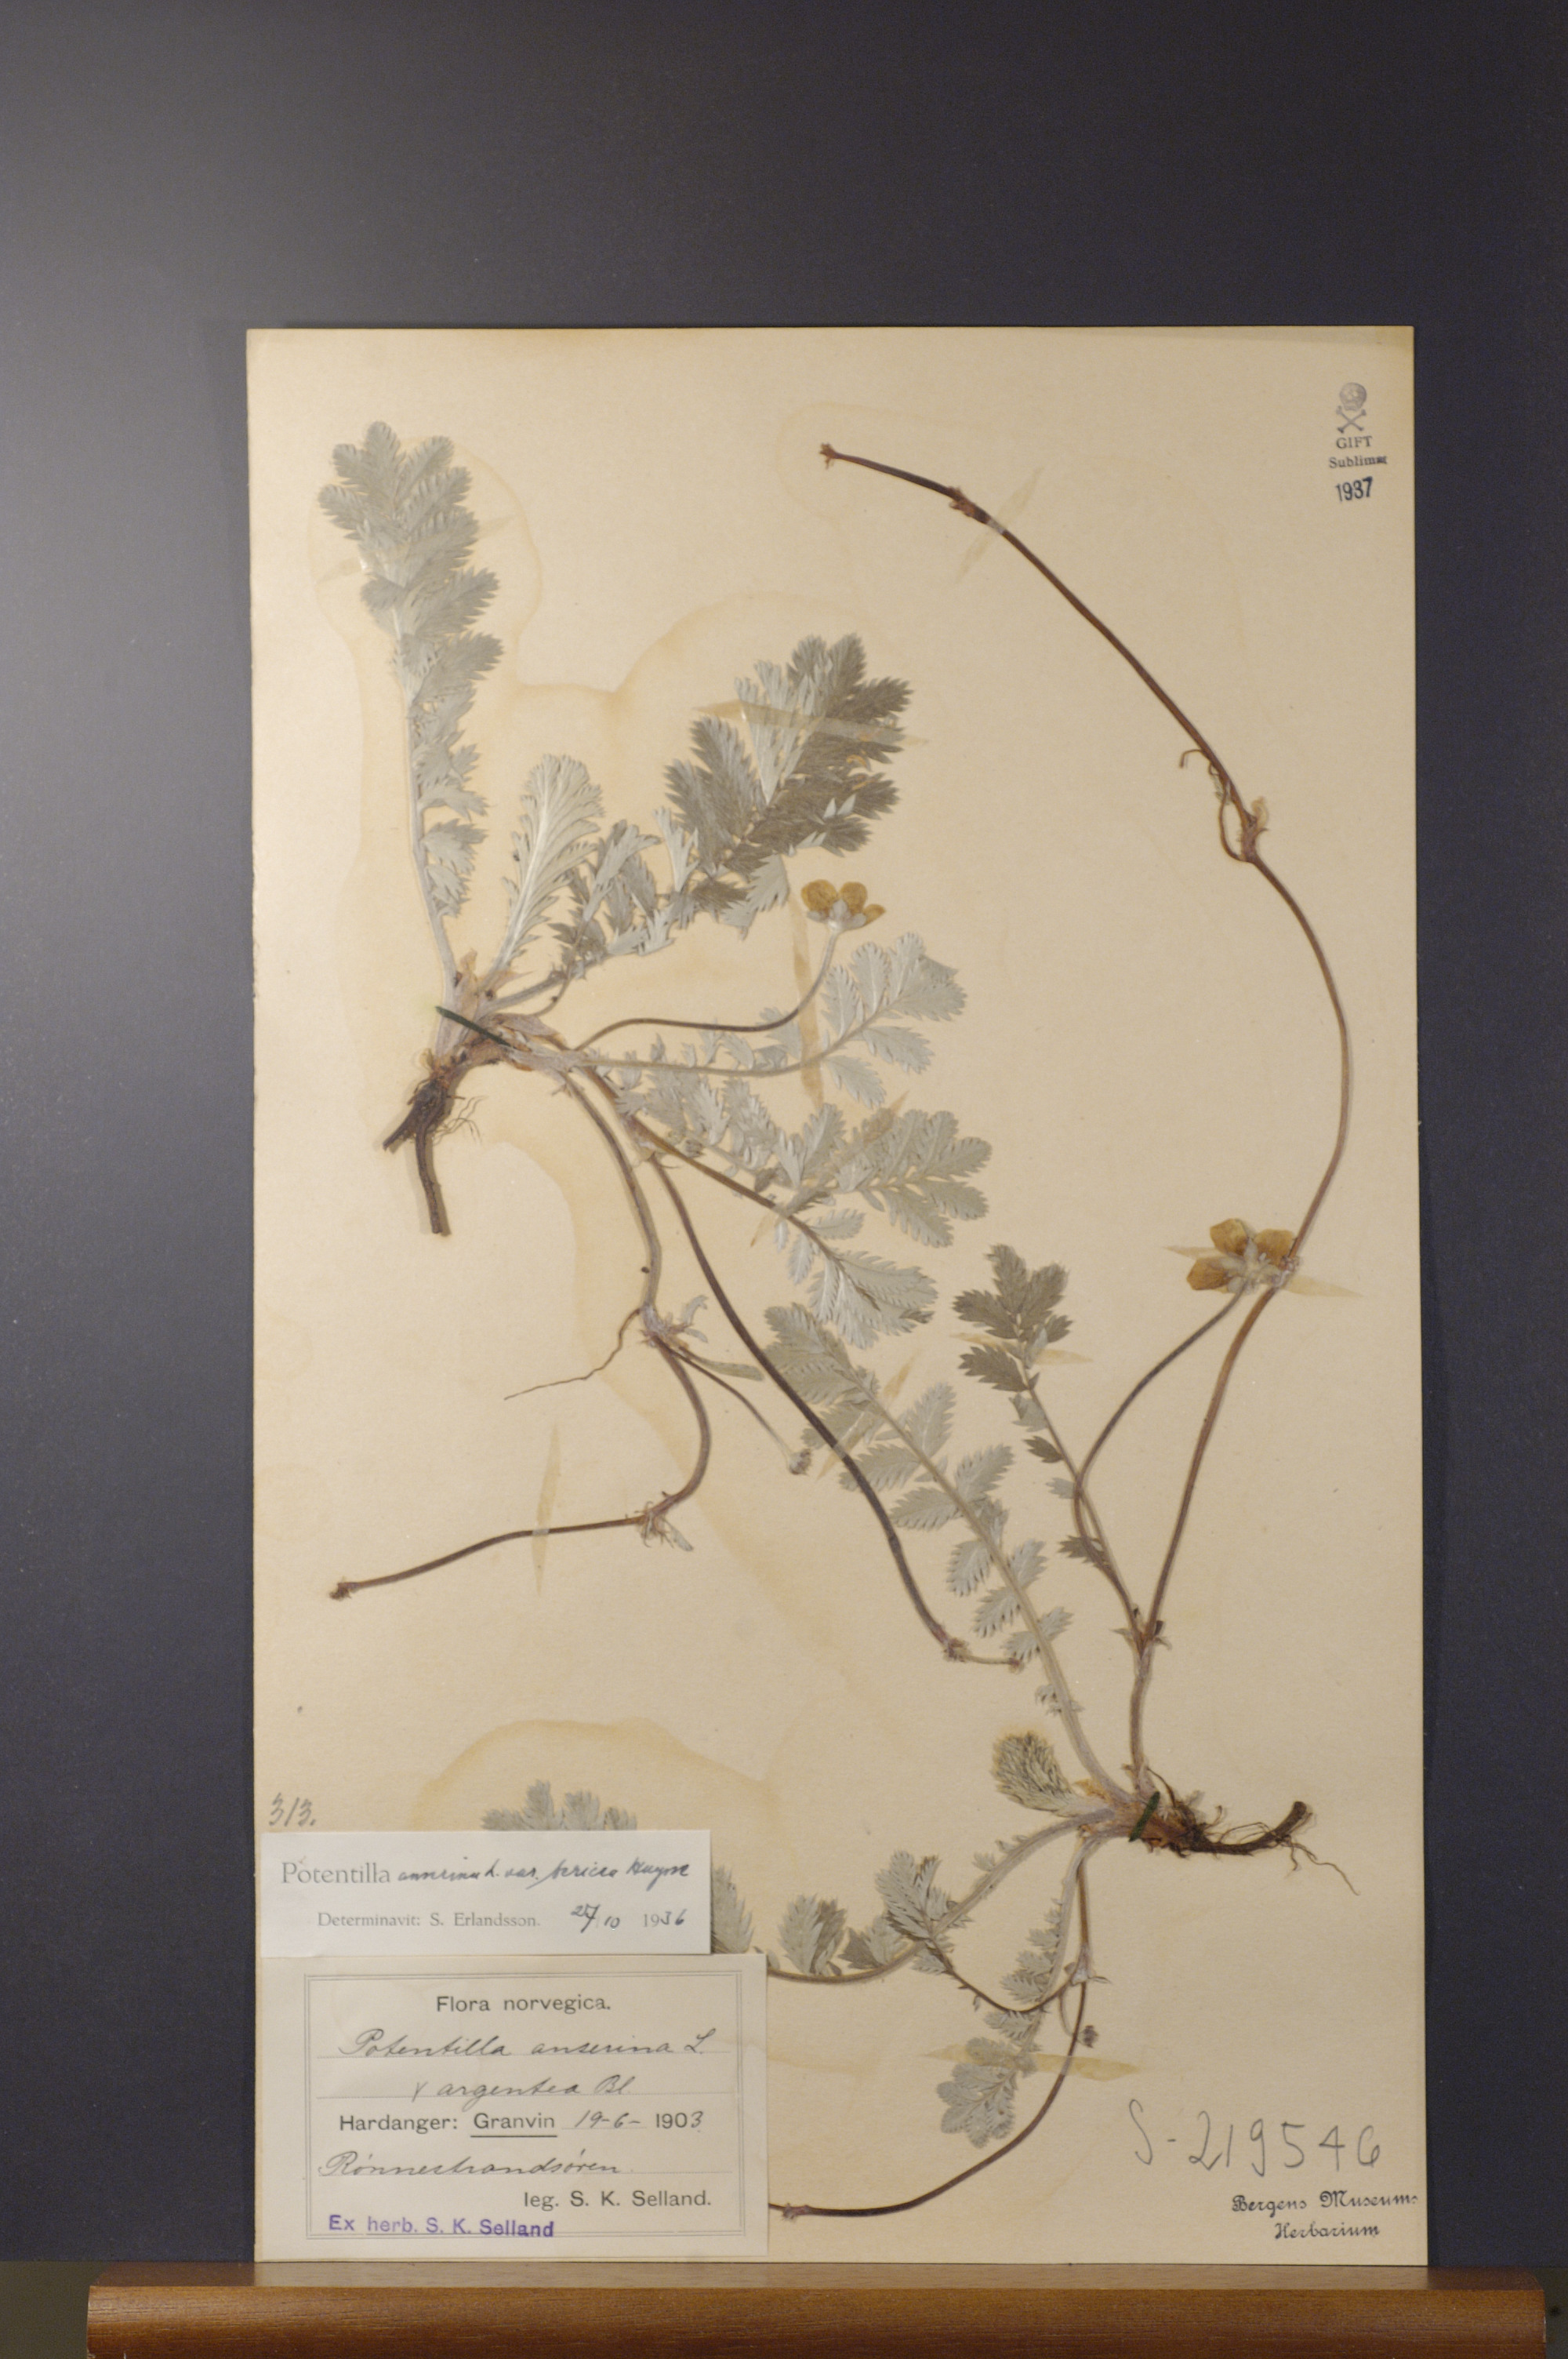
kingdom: Plantae
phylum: Tracheophyta
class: Magnoliopsida
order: Rosales
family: Rosaceae
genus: Argentina
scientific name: Argentina anserina
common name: Common silverweed
